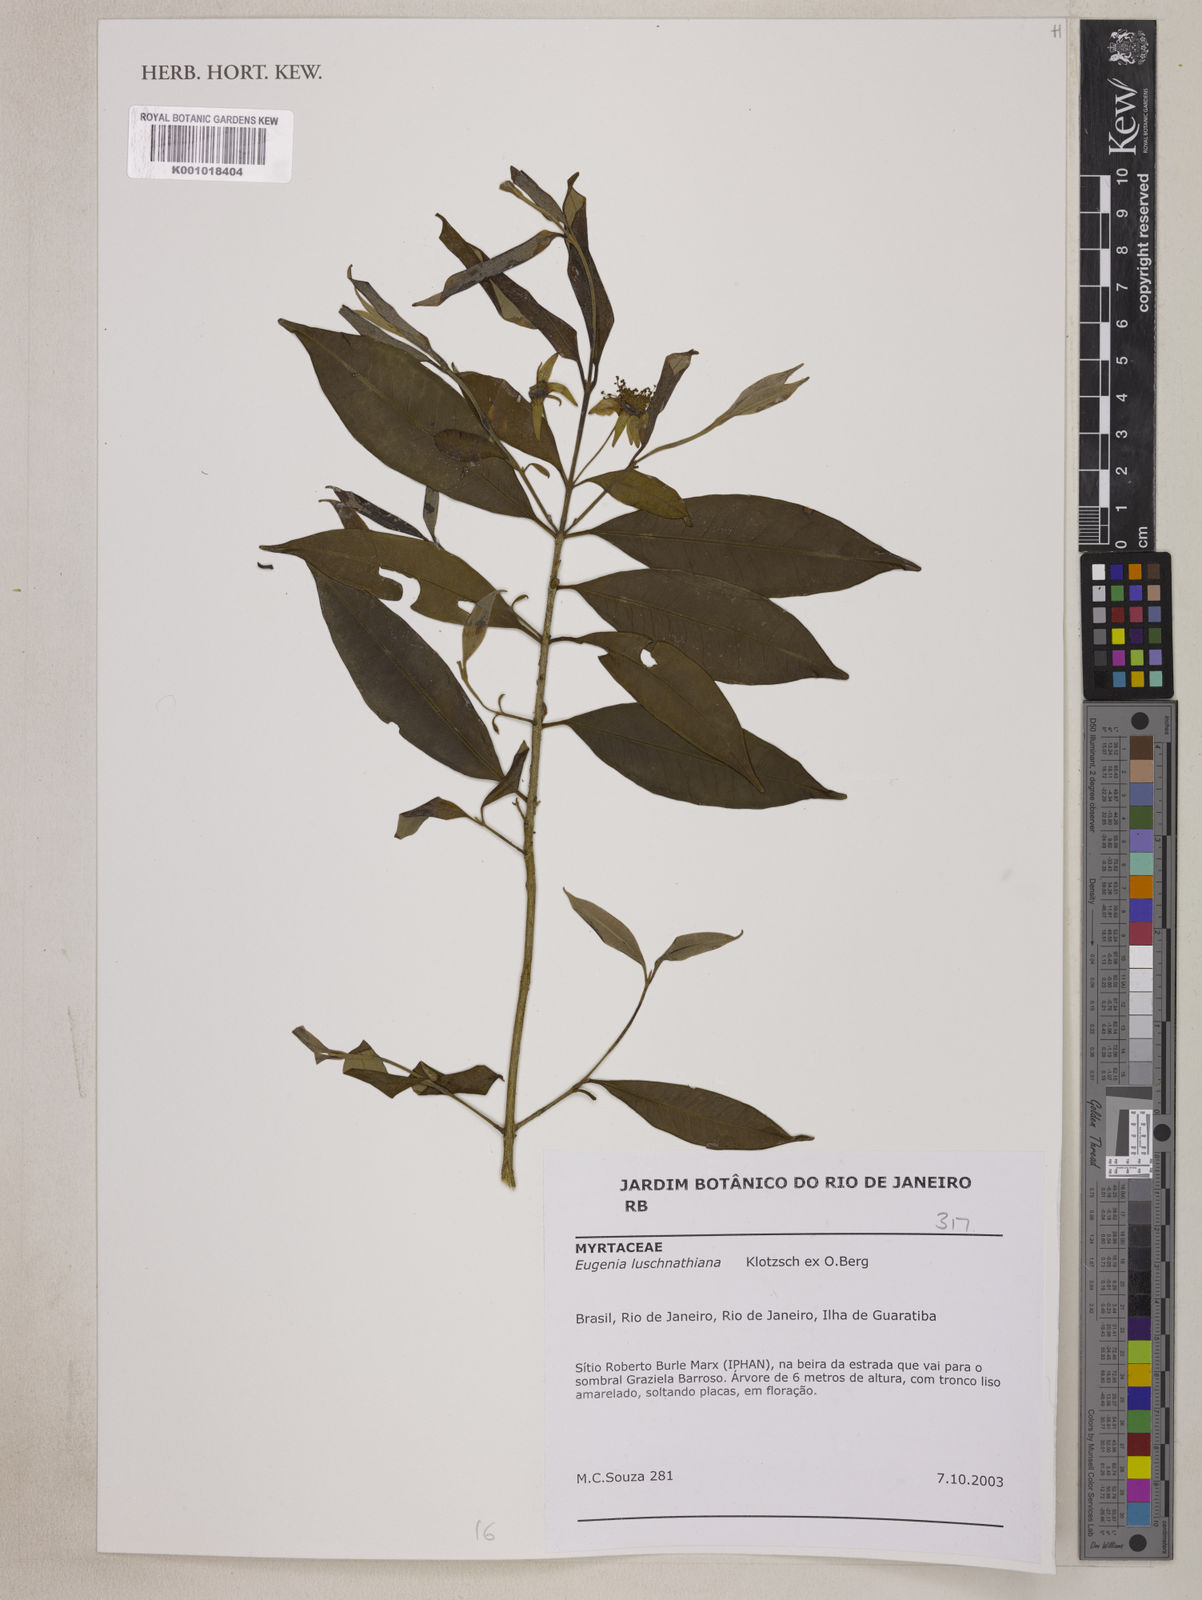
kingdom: Plantae
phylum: Tracheophyta
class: Magnoliopsida
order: Myrtales
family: Myrtaceae
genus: Eugenia
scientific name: Eugenia
